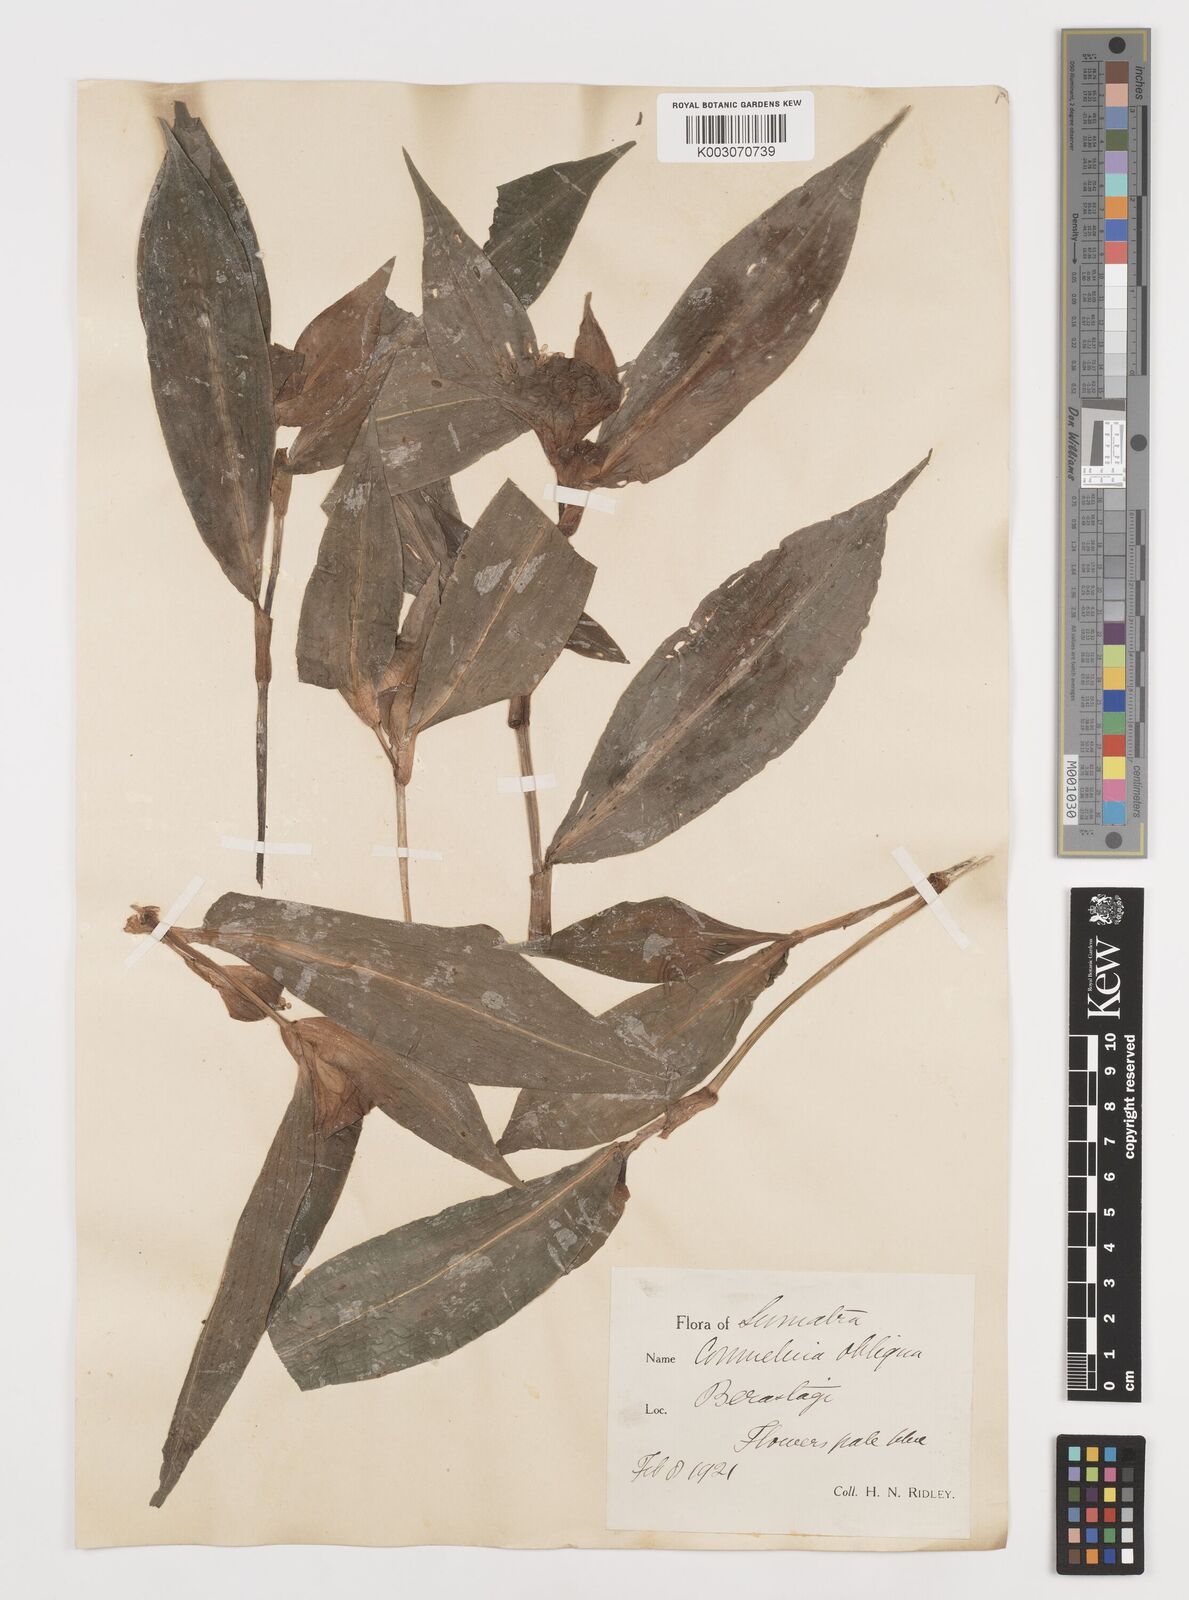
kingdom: Plantae
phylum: Tracheophyta
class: Liliopsida
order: Commelinales
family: Commelinaceae
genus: Commelina
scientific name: Commelina paludosa
